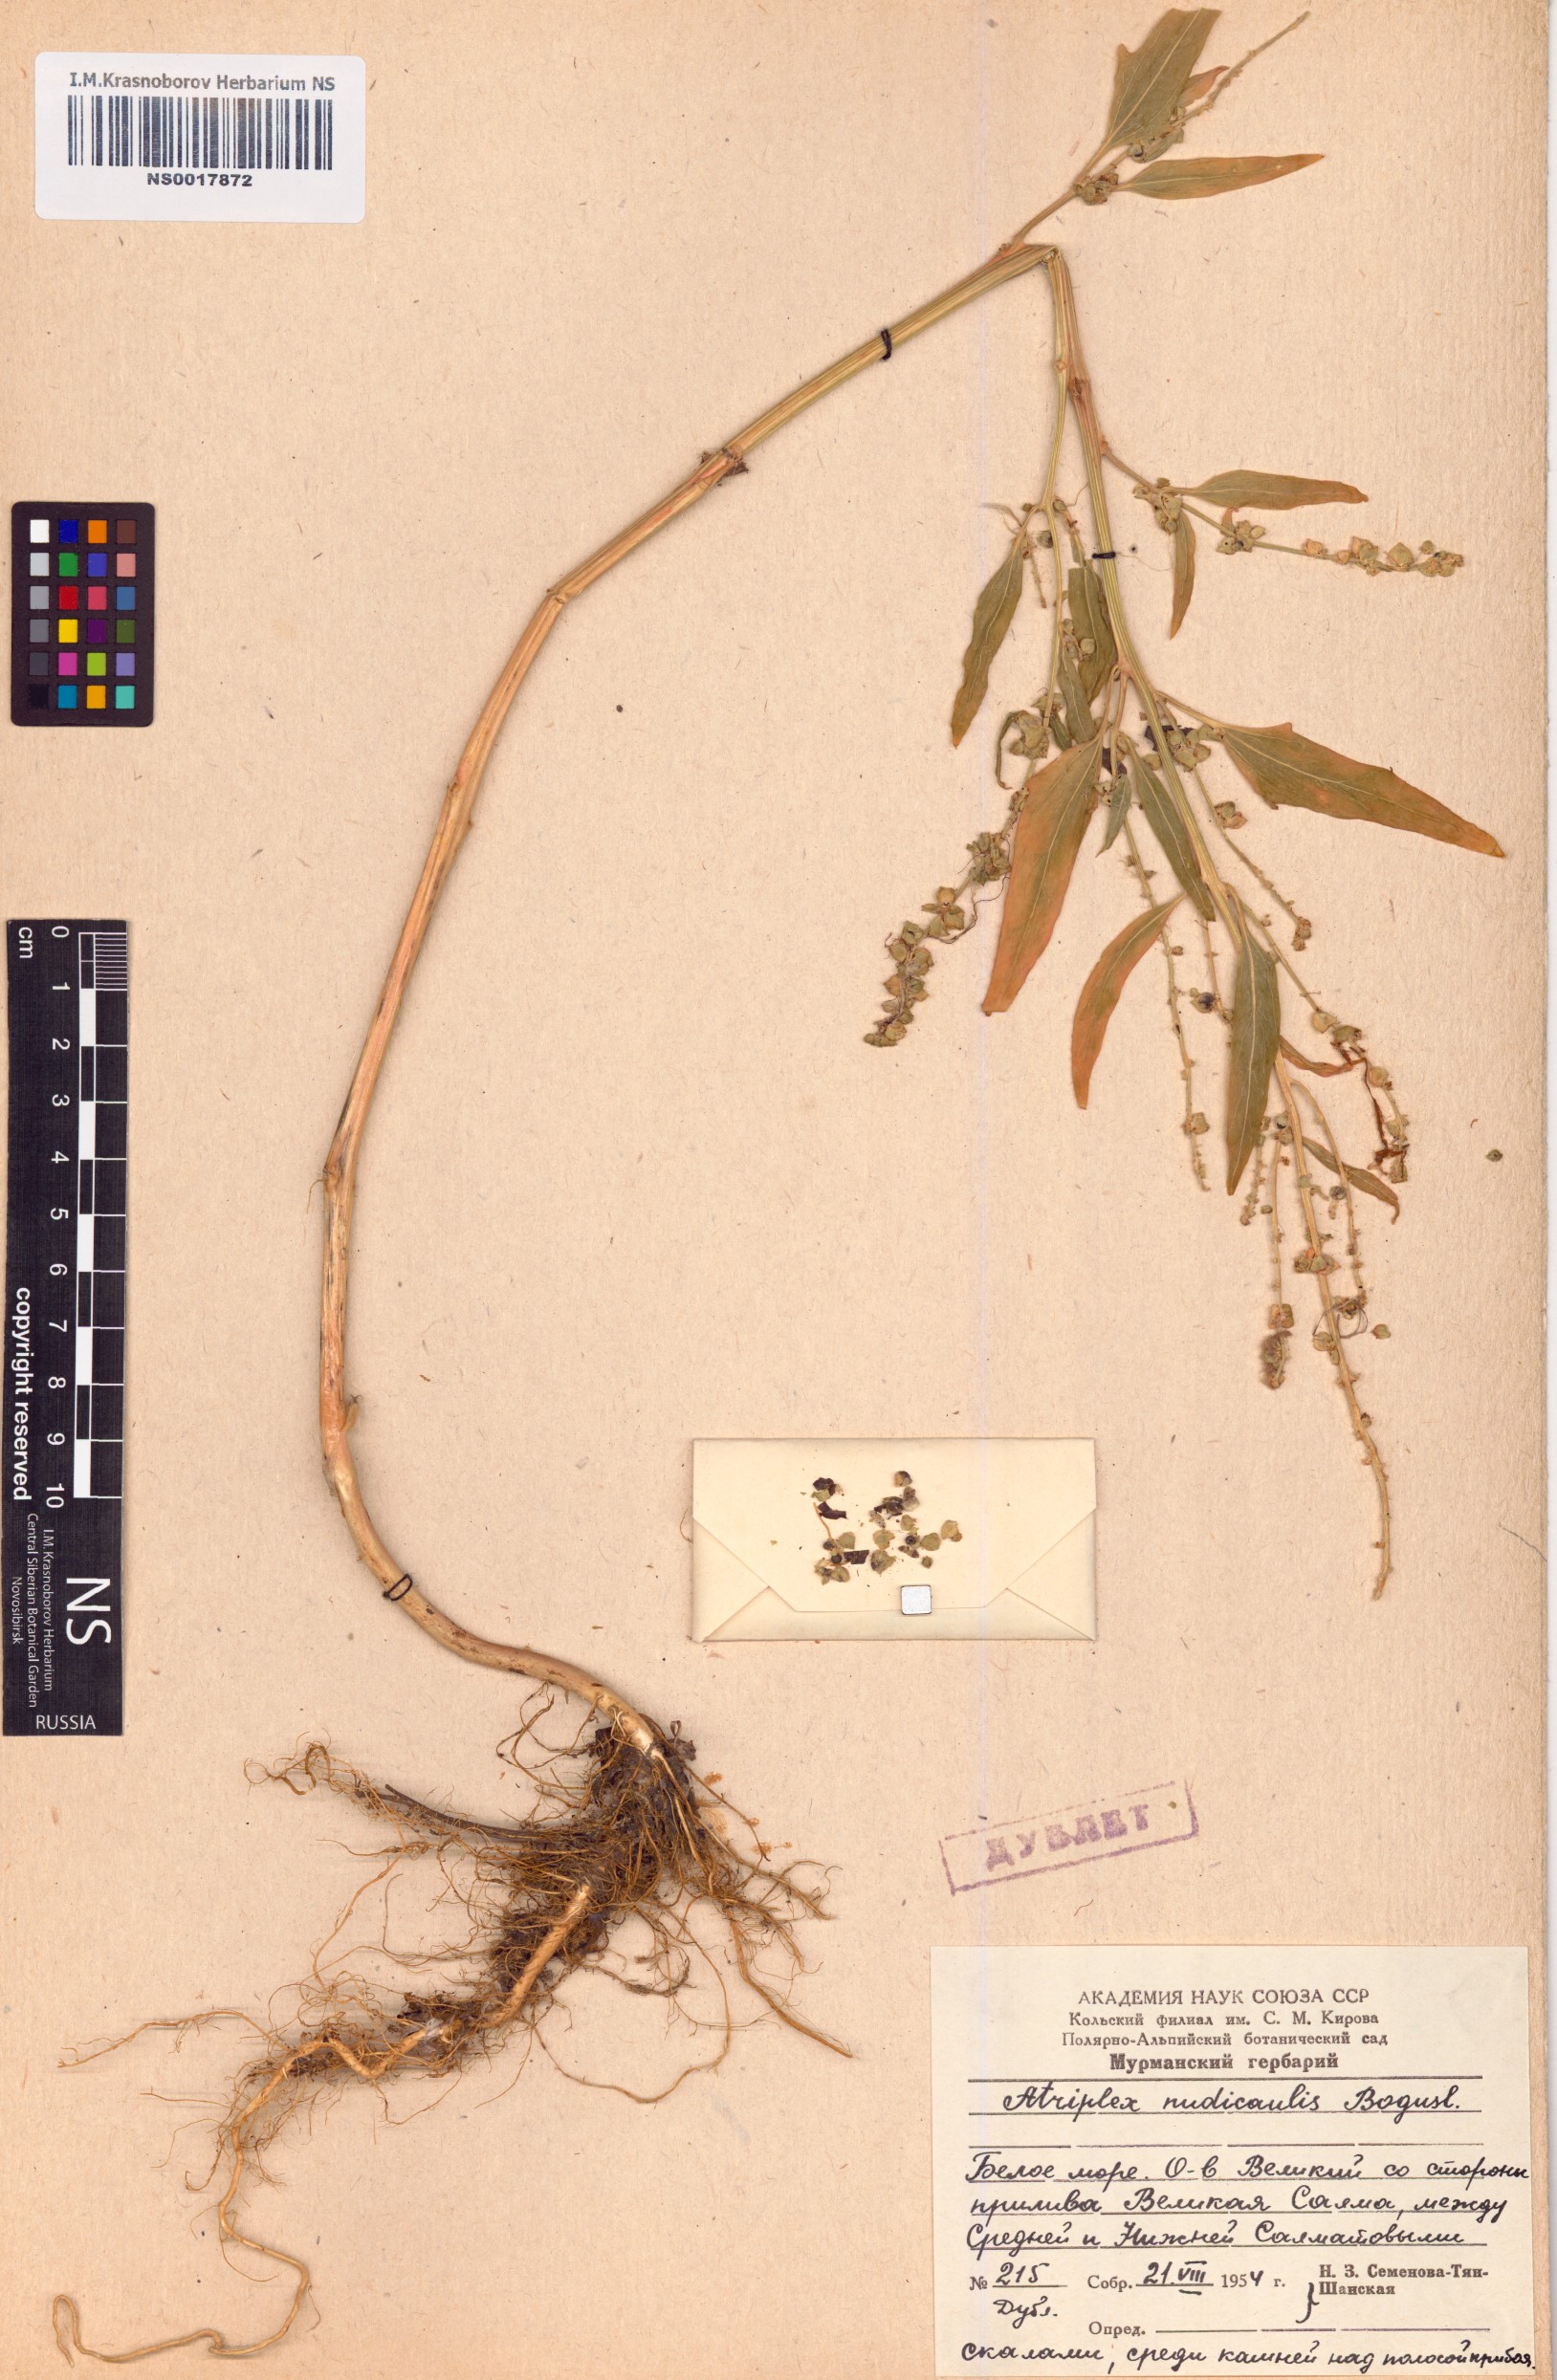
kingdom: Plantae
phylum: Tracheophyta
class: Magnoliopsida
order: Caryophyllales
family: Amaranthaceae
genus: Atriplex
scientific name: Atriplex nudicaulis
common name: Baltic orache
